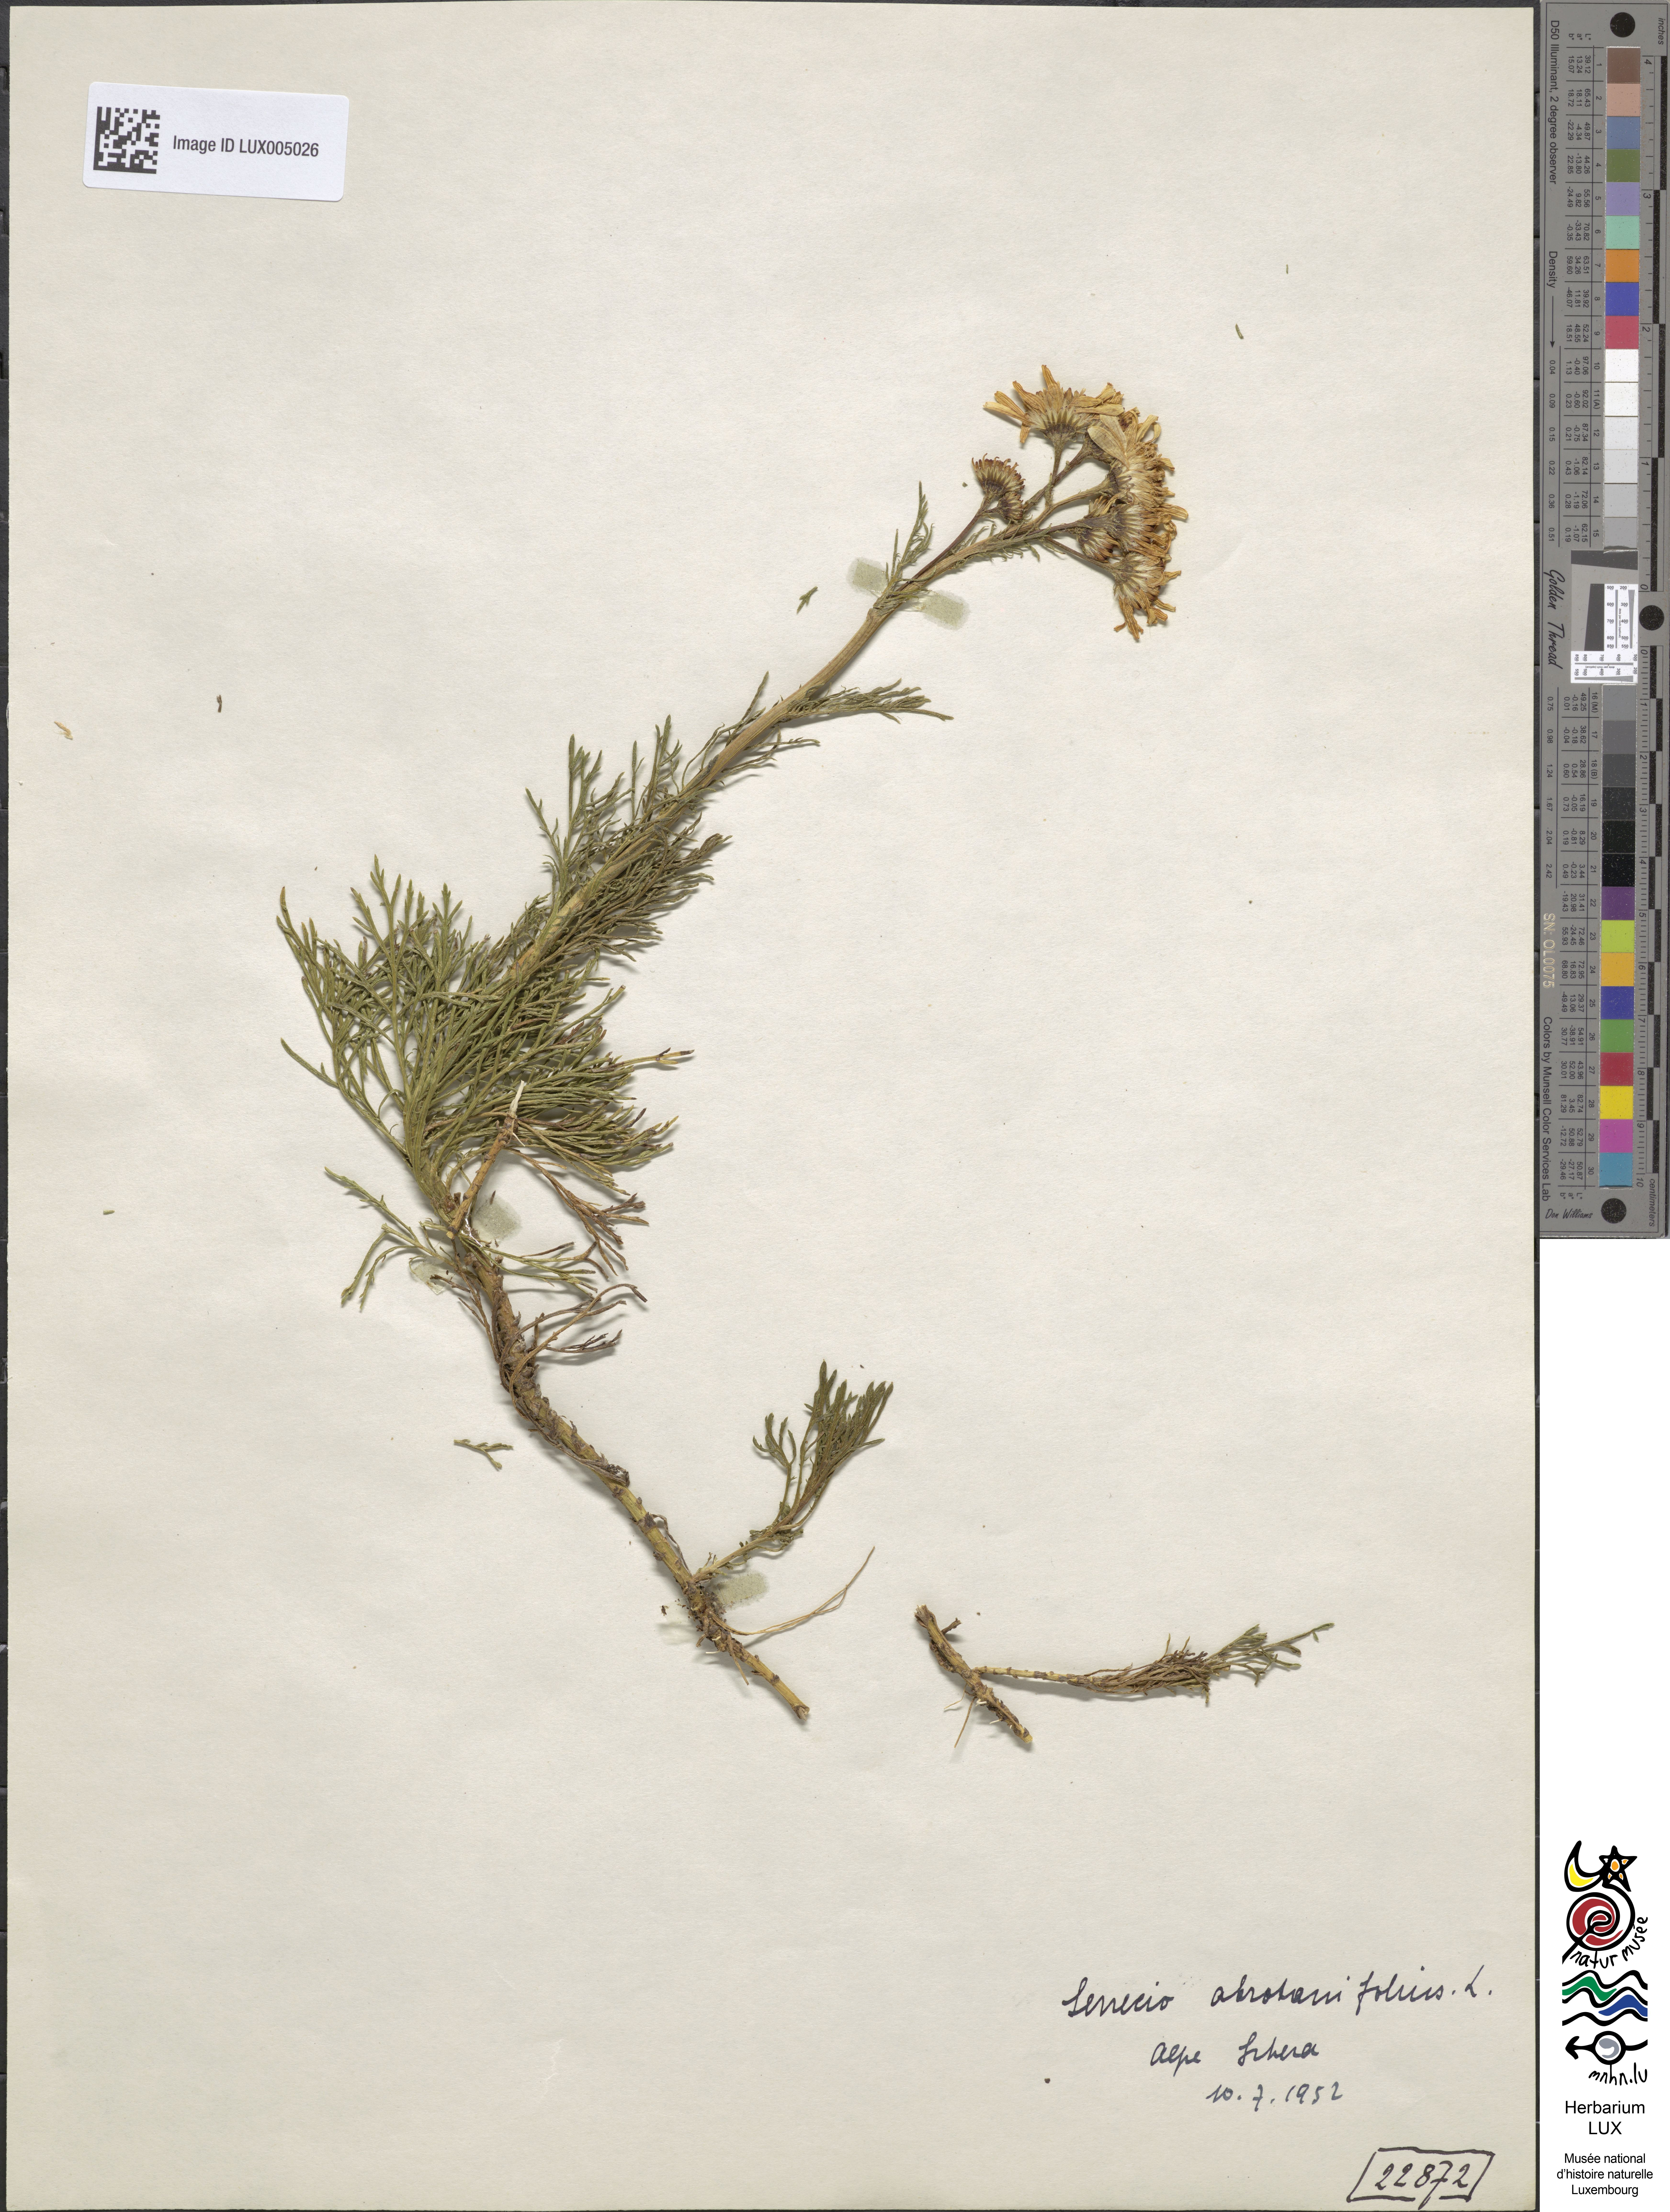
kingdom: Plantae
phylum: Tracheophyta
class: Magnoliopsida
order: Asterales
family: Asteraceae
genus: Jacobaea
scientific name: Jacobaea abrotanifolia
